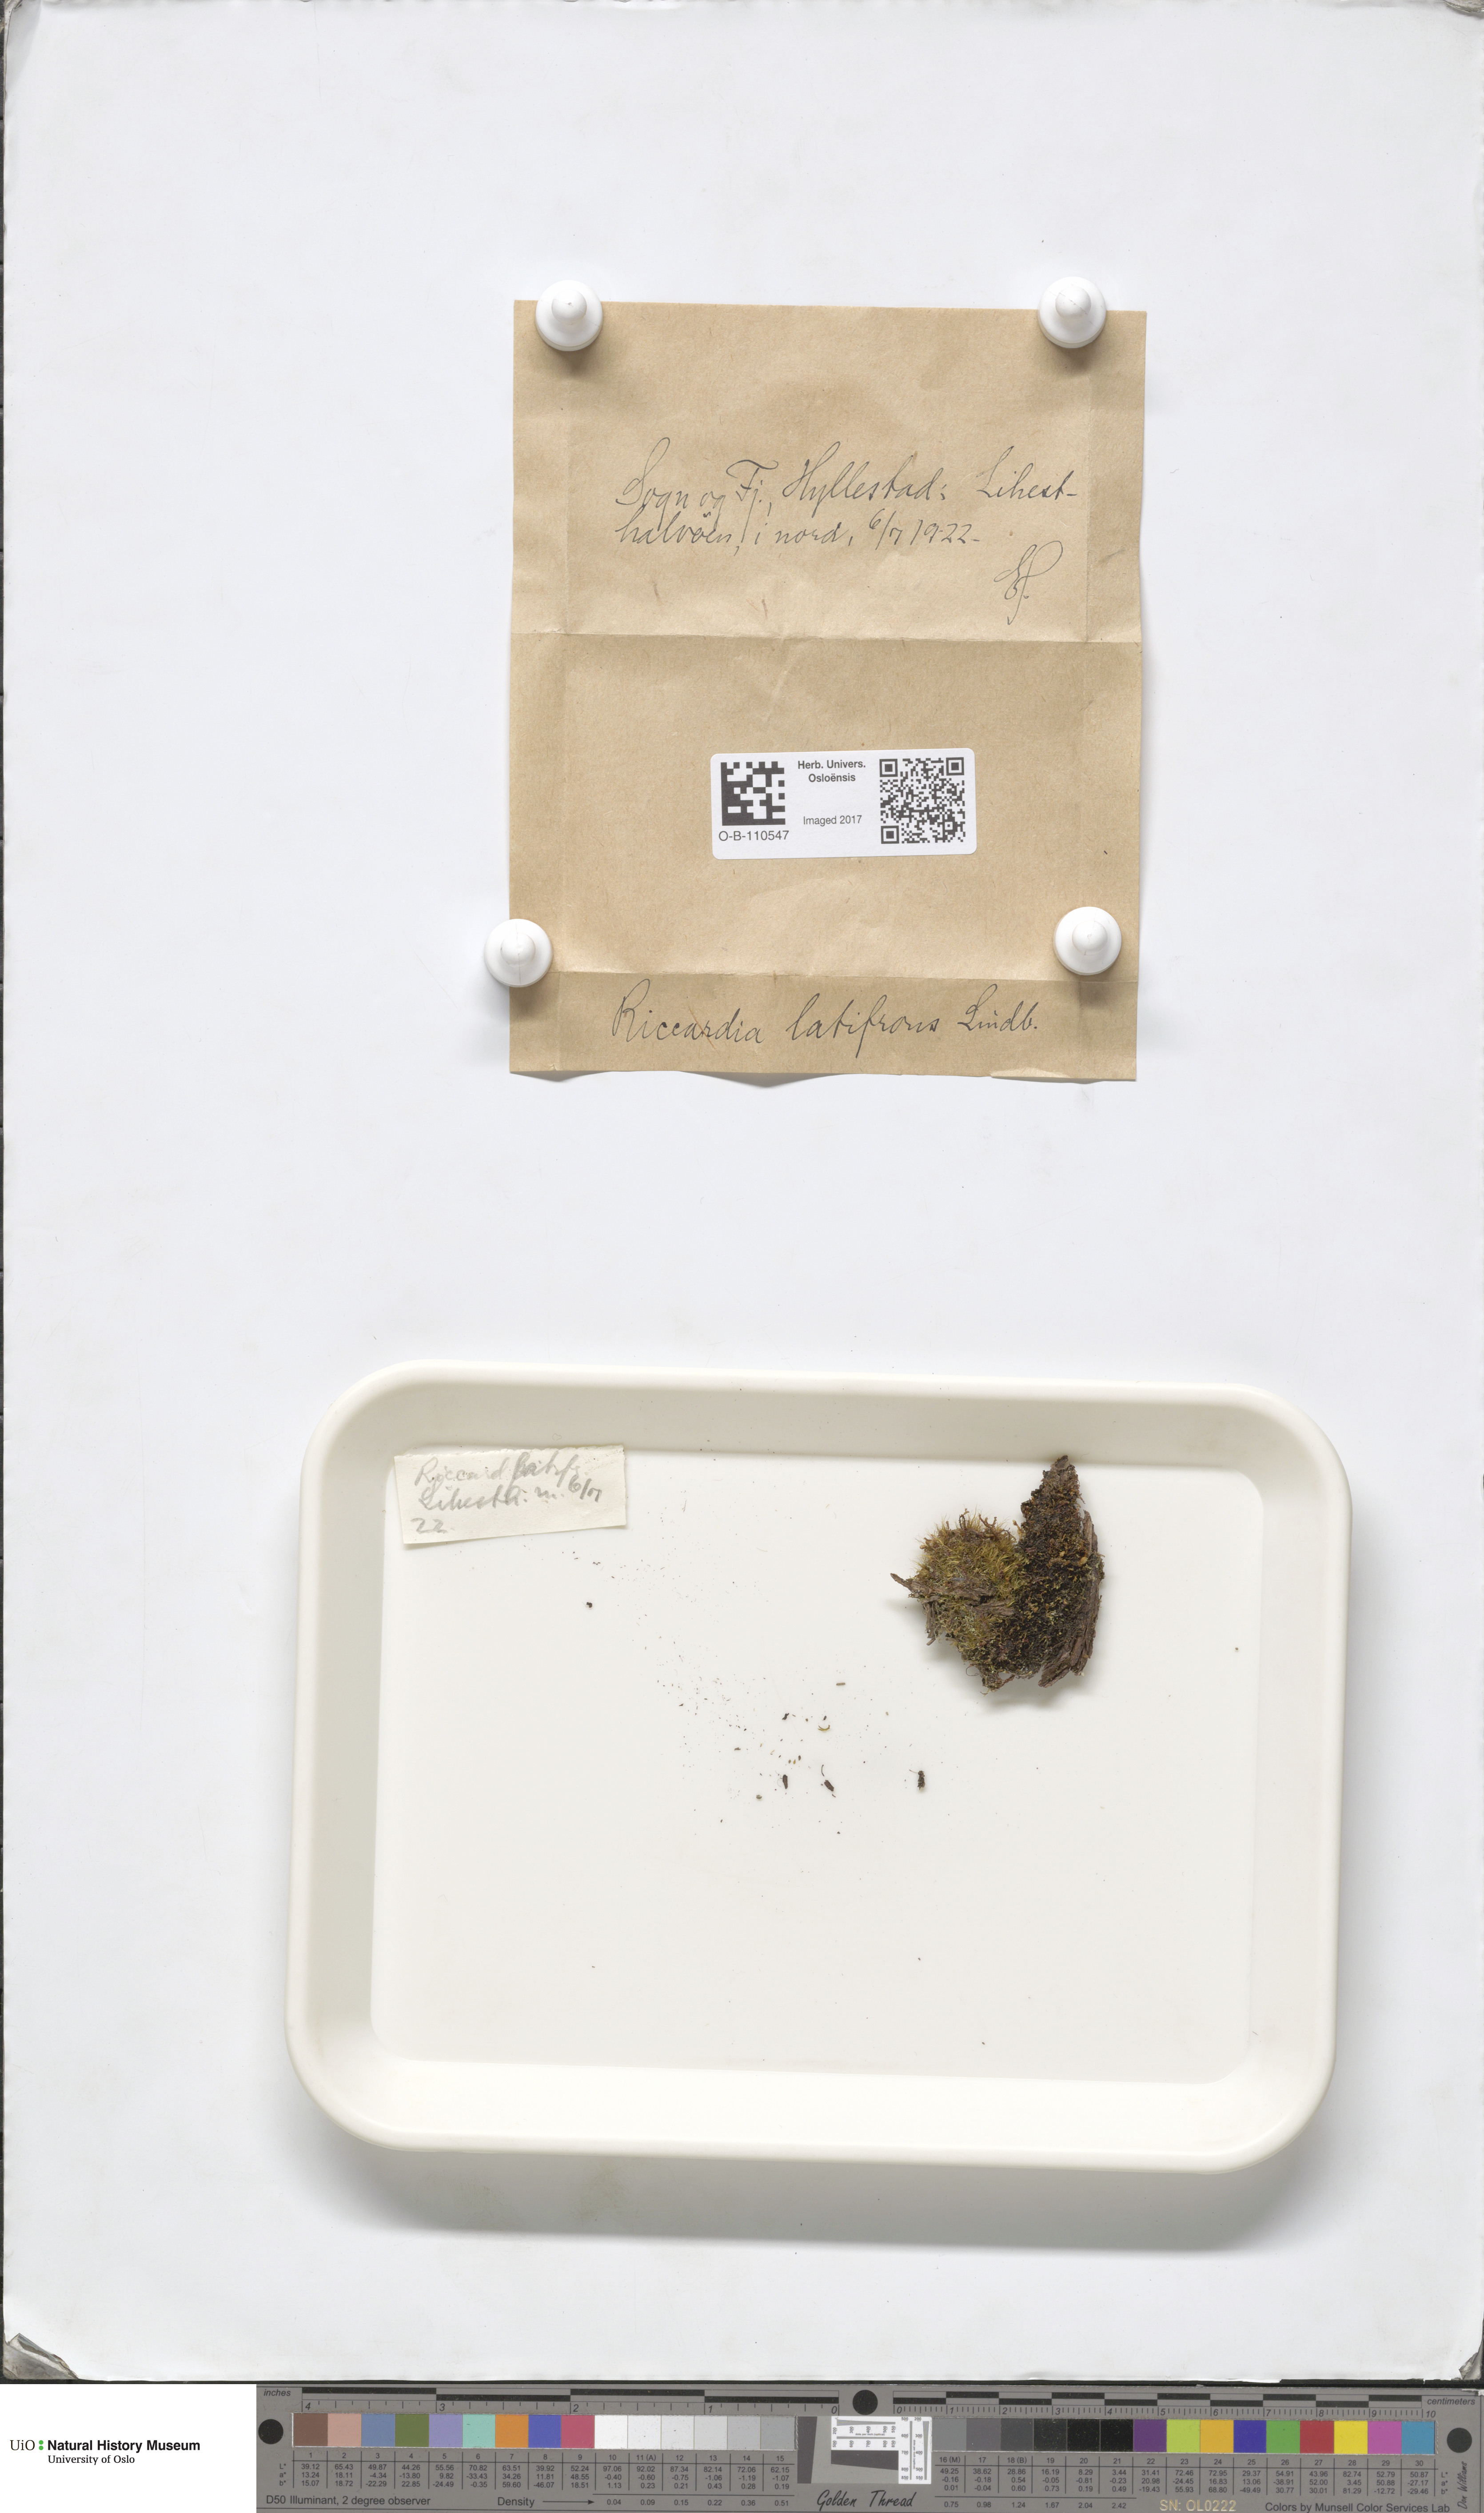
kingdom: Plantae
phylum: Marchantiophyta
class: Jungermanniopsida
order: Metzgeriales
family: Aneuraceae
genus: Riccardia
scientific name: Riccardia latifrons
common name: Bog germanderwort
